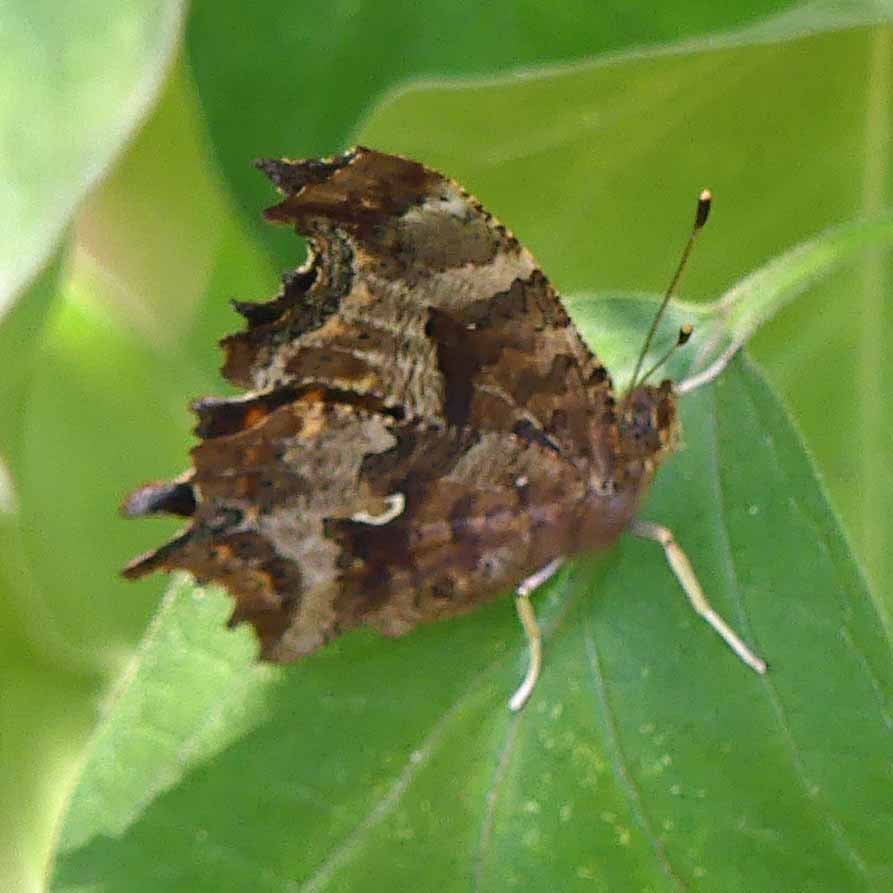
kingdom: Animalia
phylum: Arthropoda
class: Insecta
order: Lepidoptera
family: Nymphalidae
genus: Polygonia
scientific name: Polygonia comma
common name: Eastern Comma
